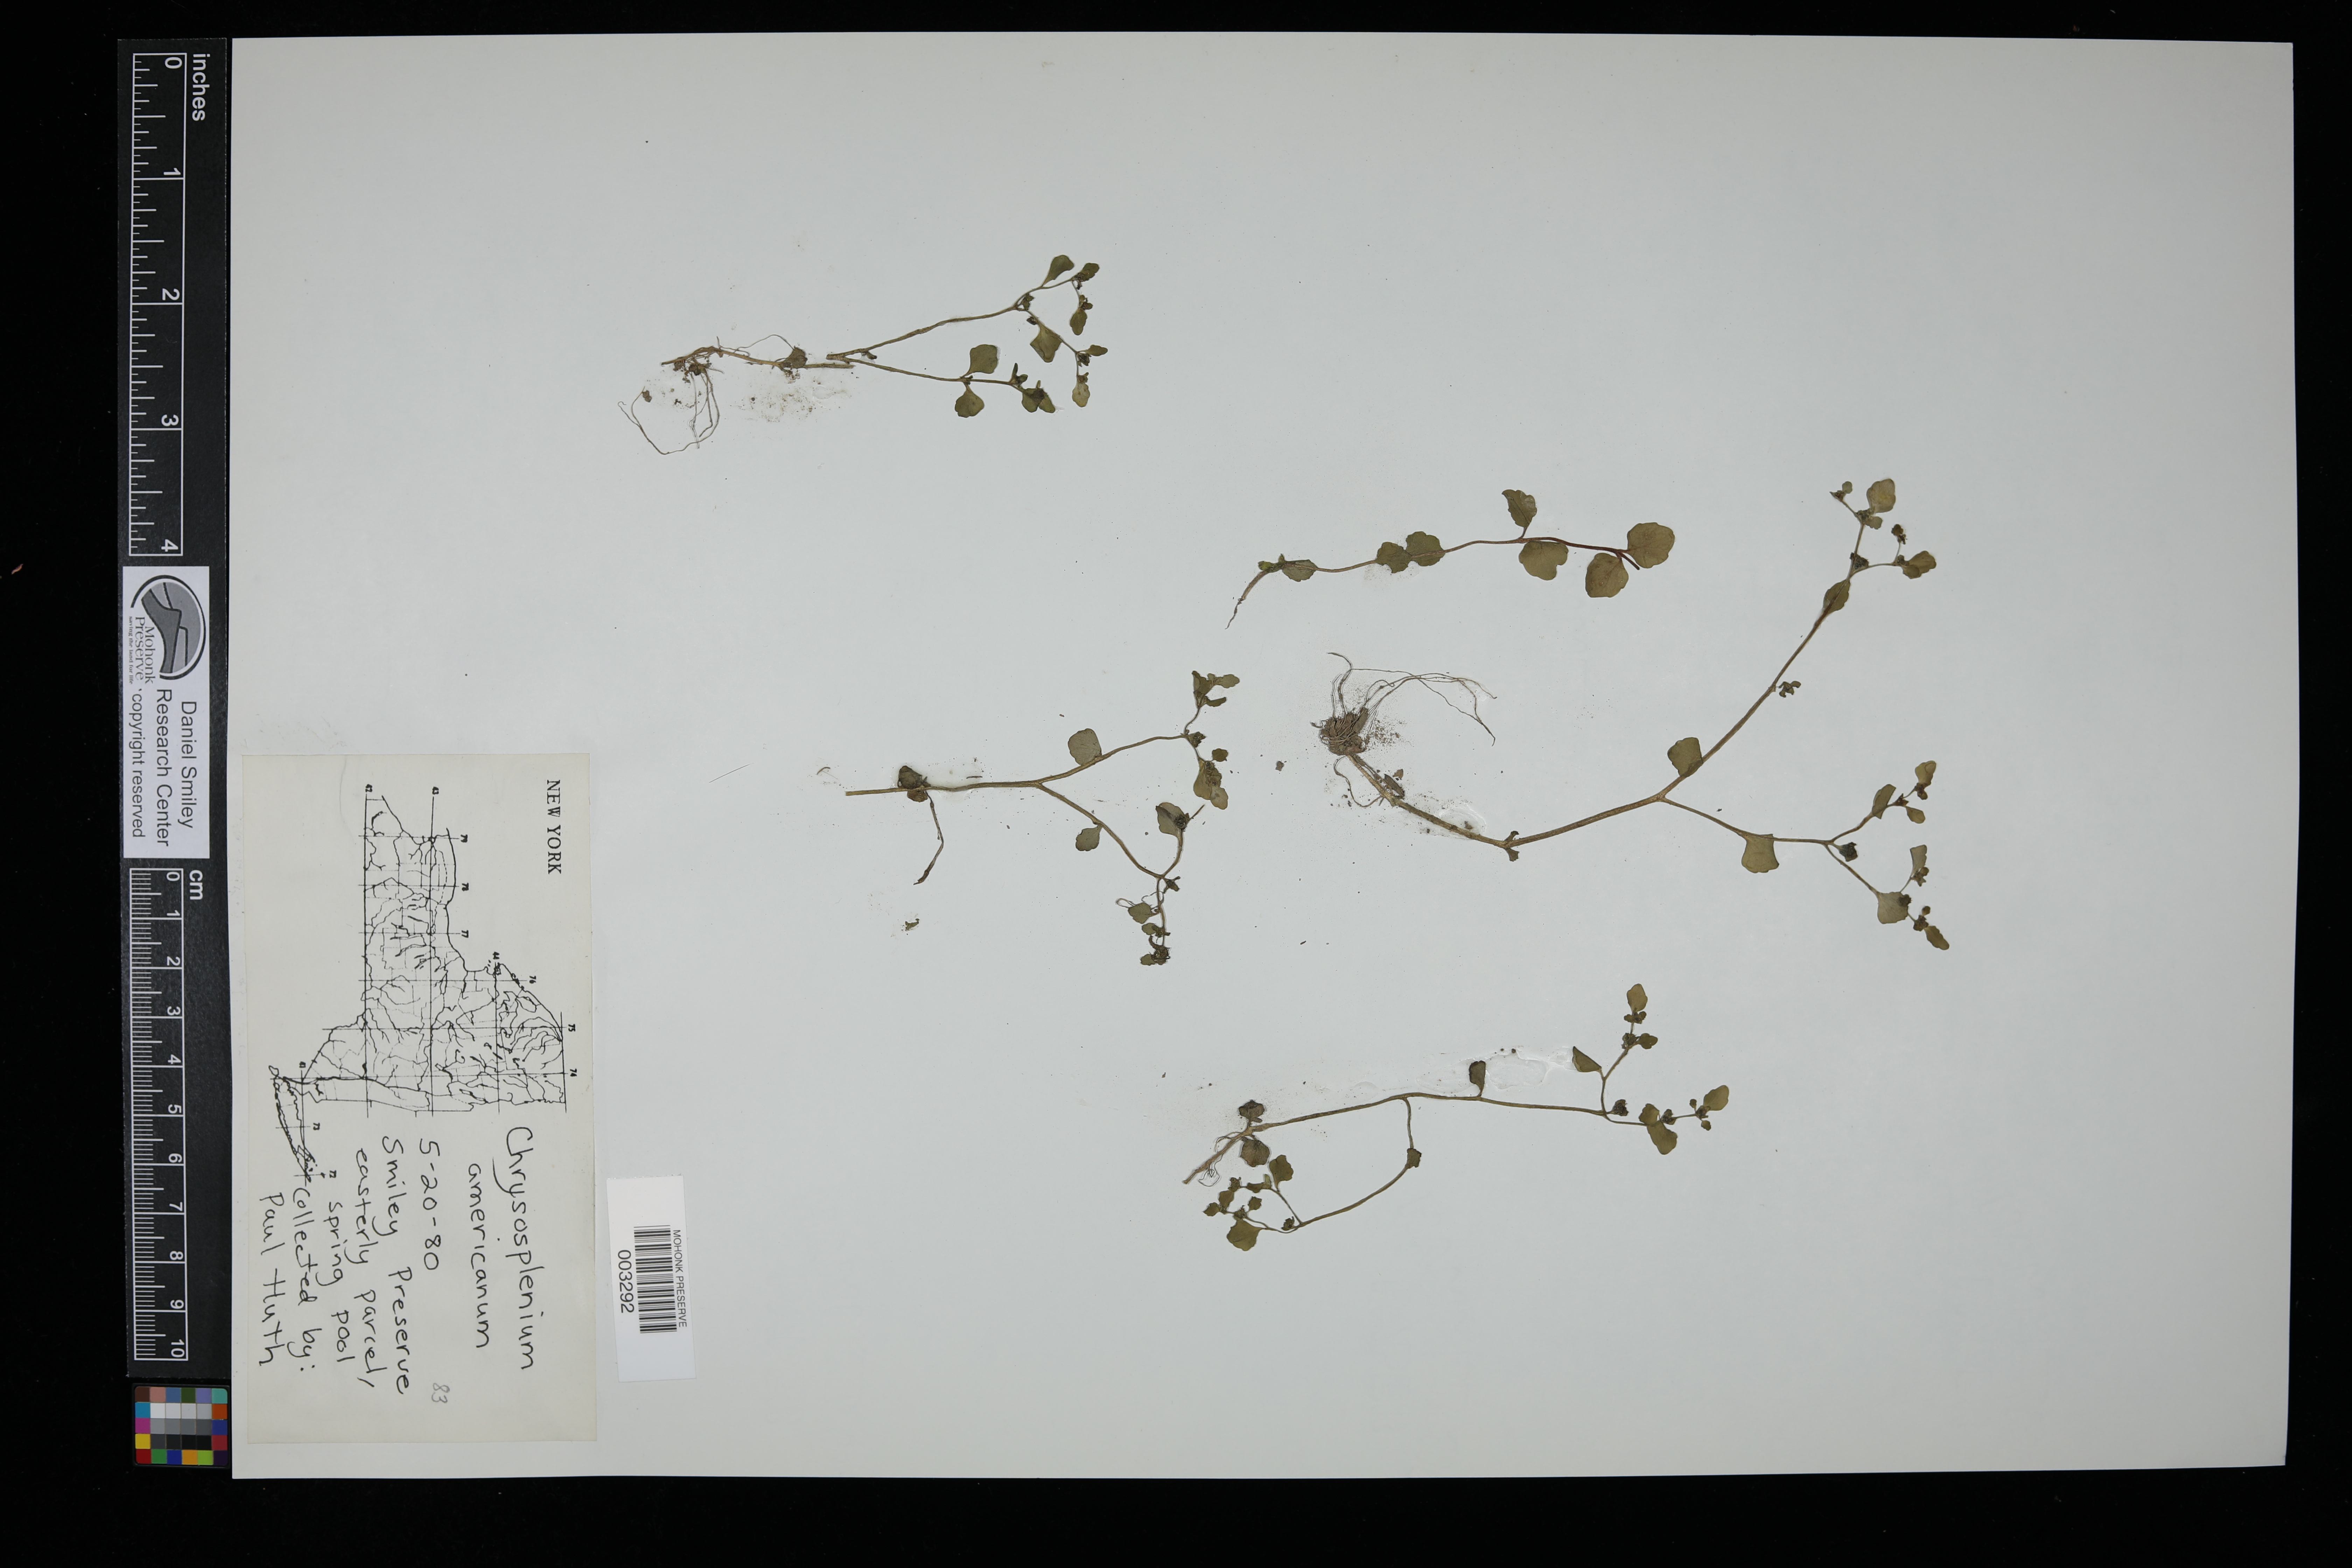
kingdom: Plantae
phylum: Tracheophyta
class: Magnoliopsida
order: Saxifragales
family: Saxifragaceae
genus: Chrysosplenium
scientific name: Chrysosplenium americanum
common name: American golden-saxifrage
